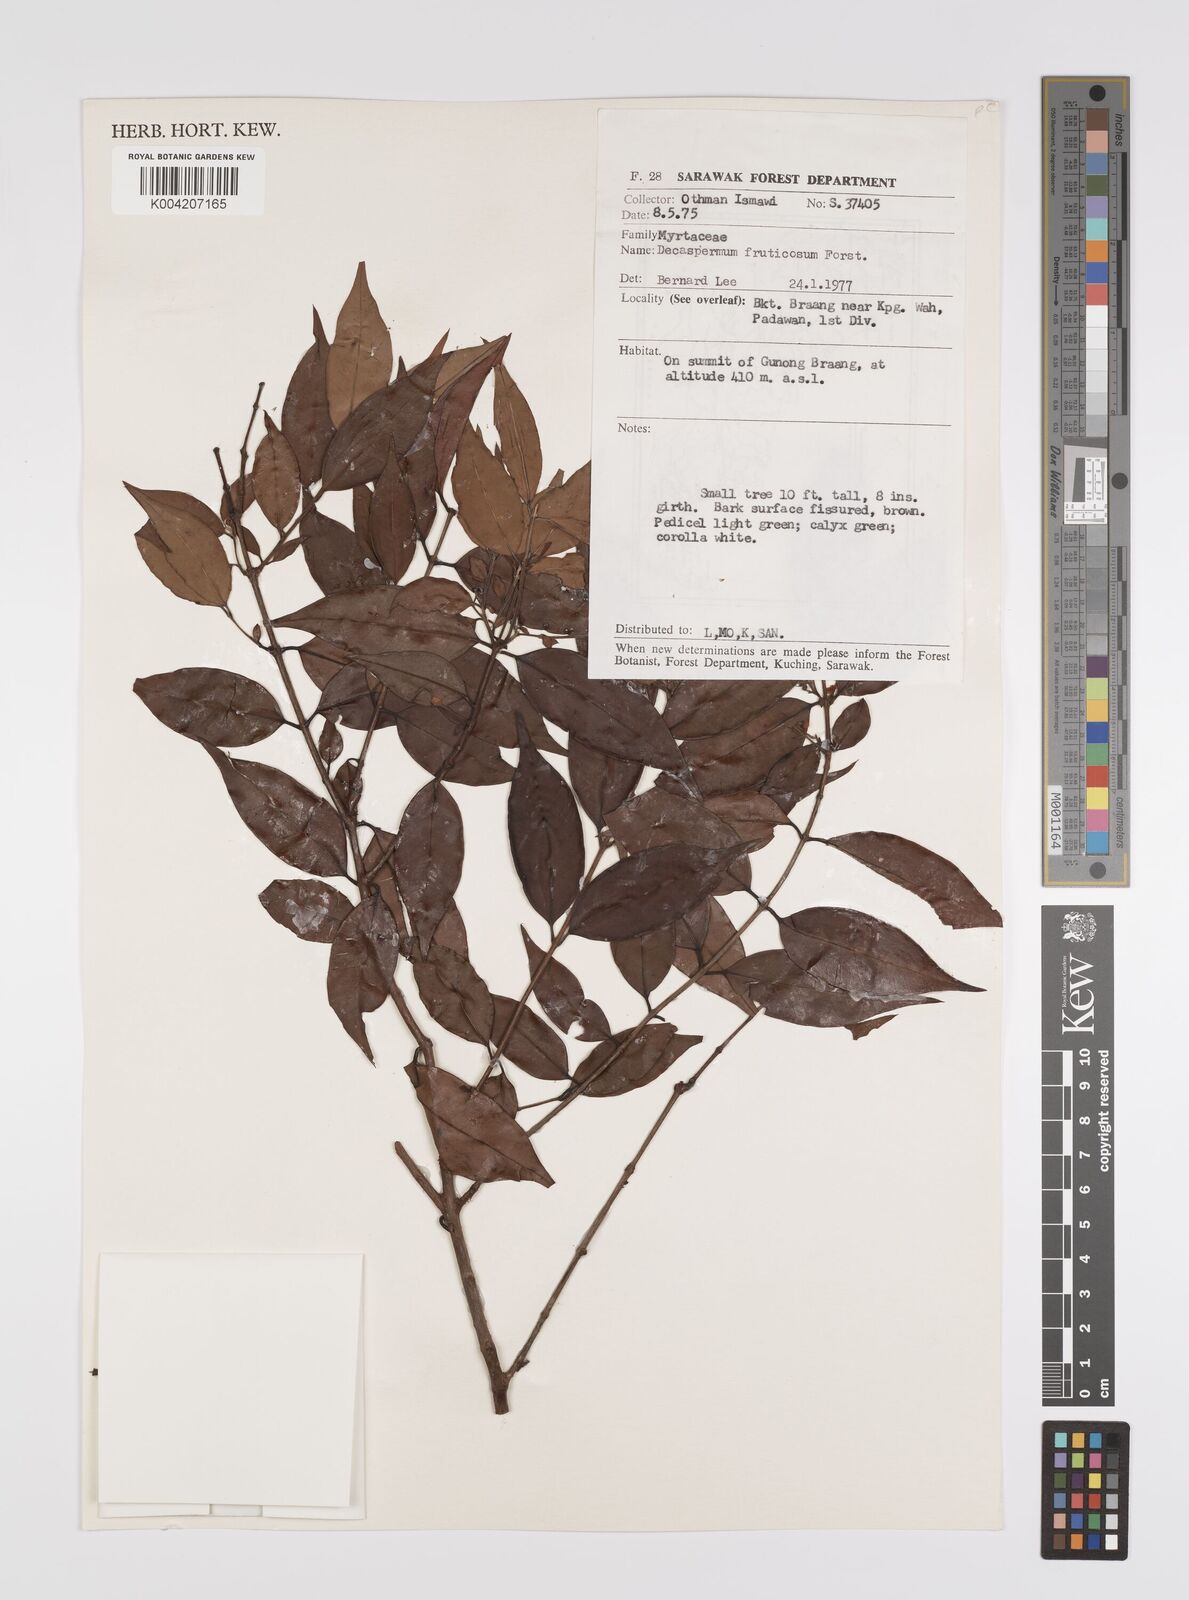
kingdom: Plantae
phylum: Tracheophyta
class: Magnoliopsida
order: Myrtales
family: Myrtaceae
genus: Decaspermum
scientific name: Decaspermum fruticosum
